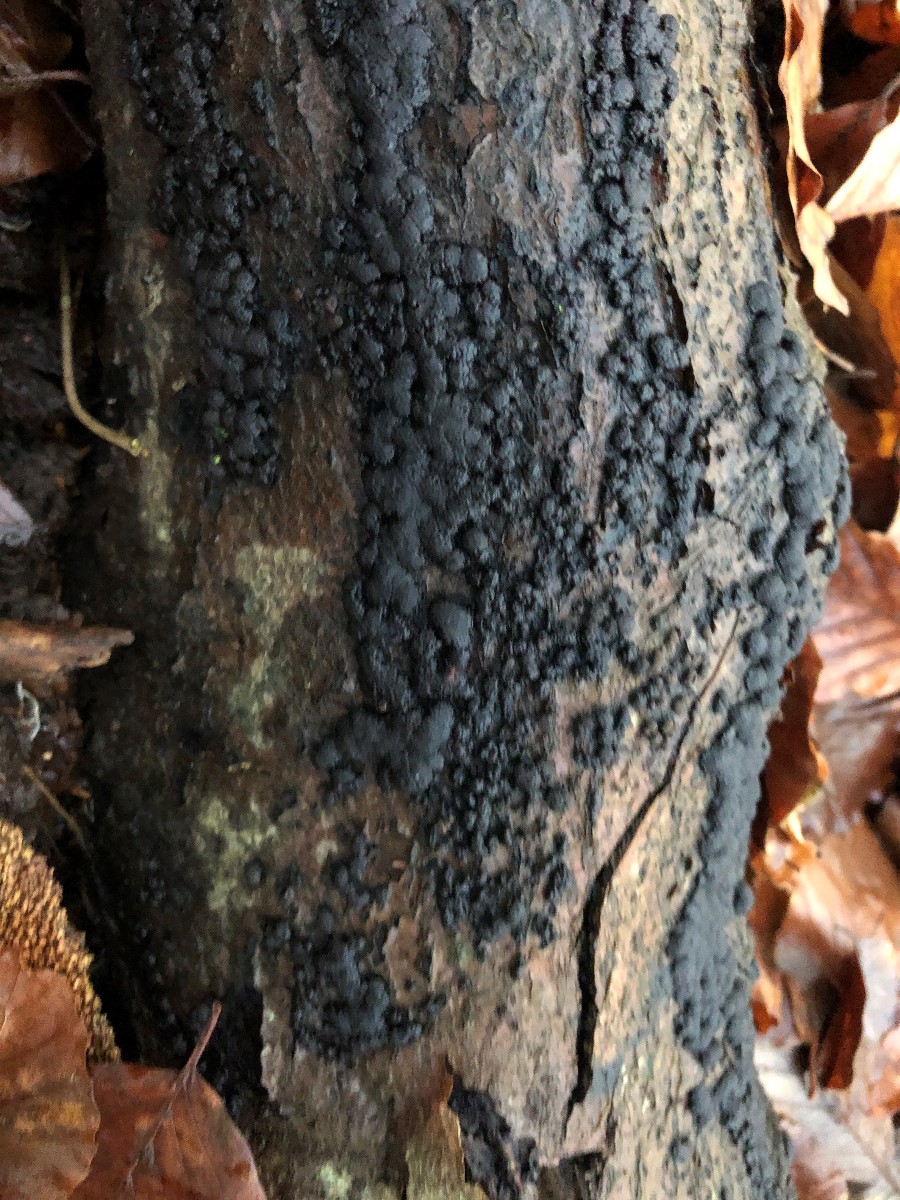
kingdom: Fungi
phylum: Ascomycota
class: Sordariomycetes
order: Xylariales
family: Hypoxylaceae
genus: Jackrogersella
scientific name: Jackrogersella multiformis
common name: foranderlig kulbær
